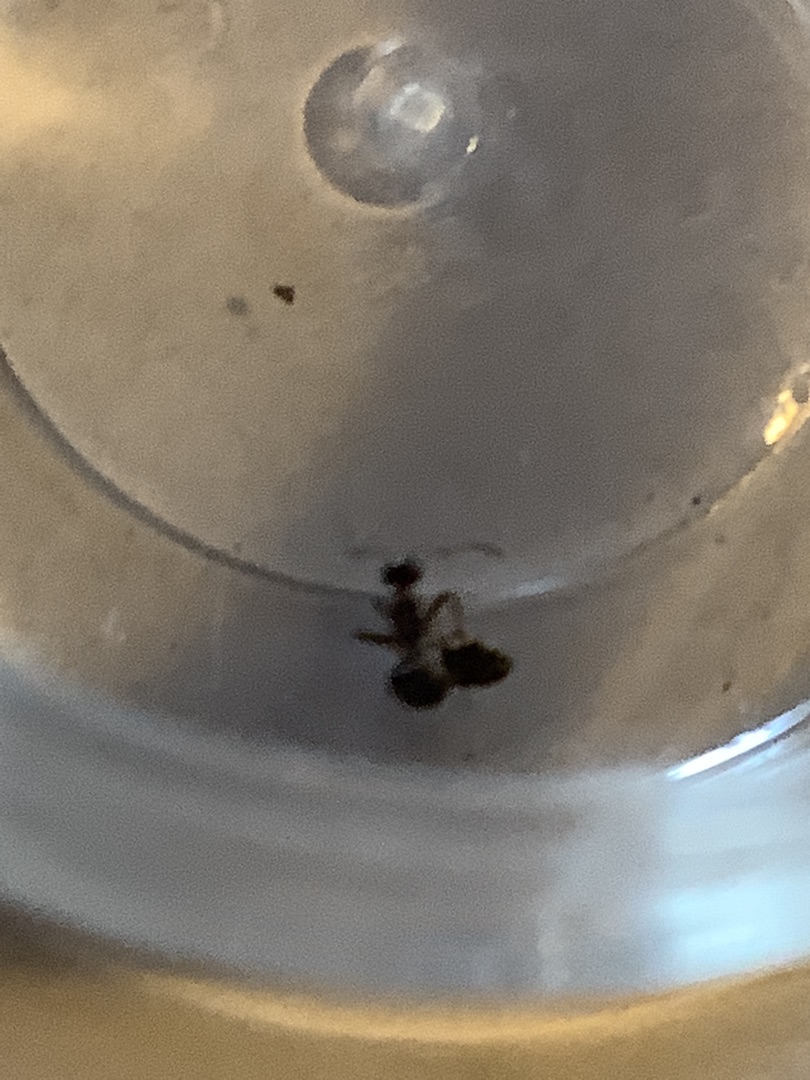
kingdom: Animalia
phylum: Arthropoda
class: Insecta
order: Hymenoptera
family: Formicidae
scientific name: Formicidae
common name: Myrer
